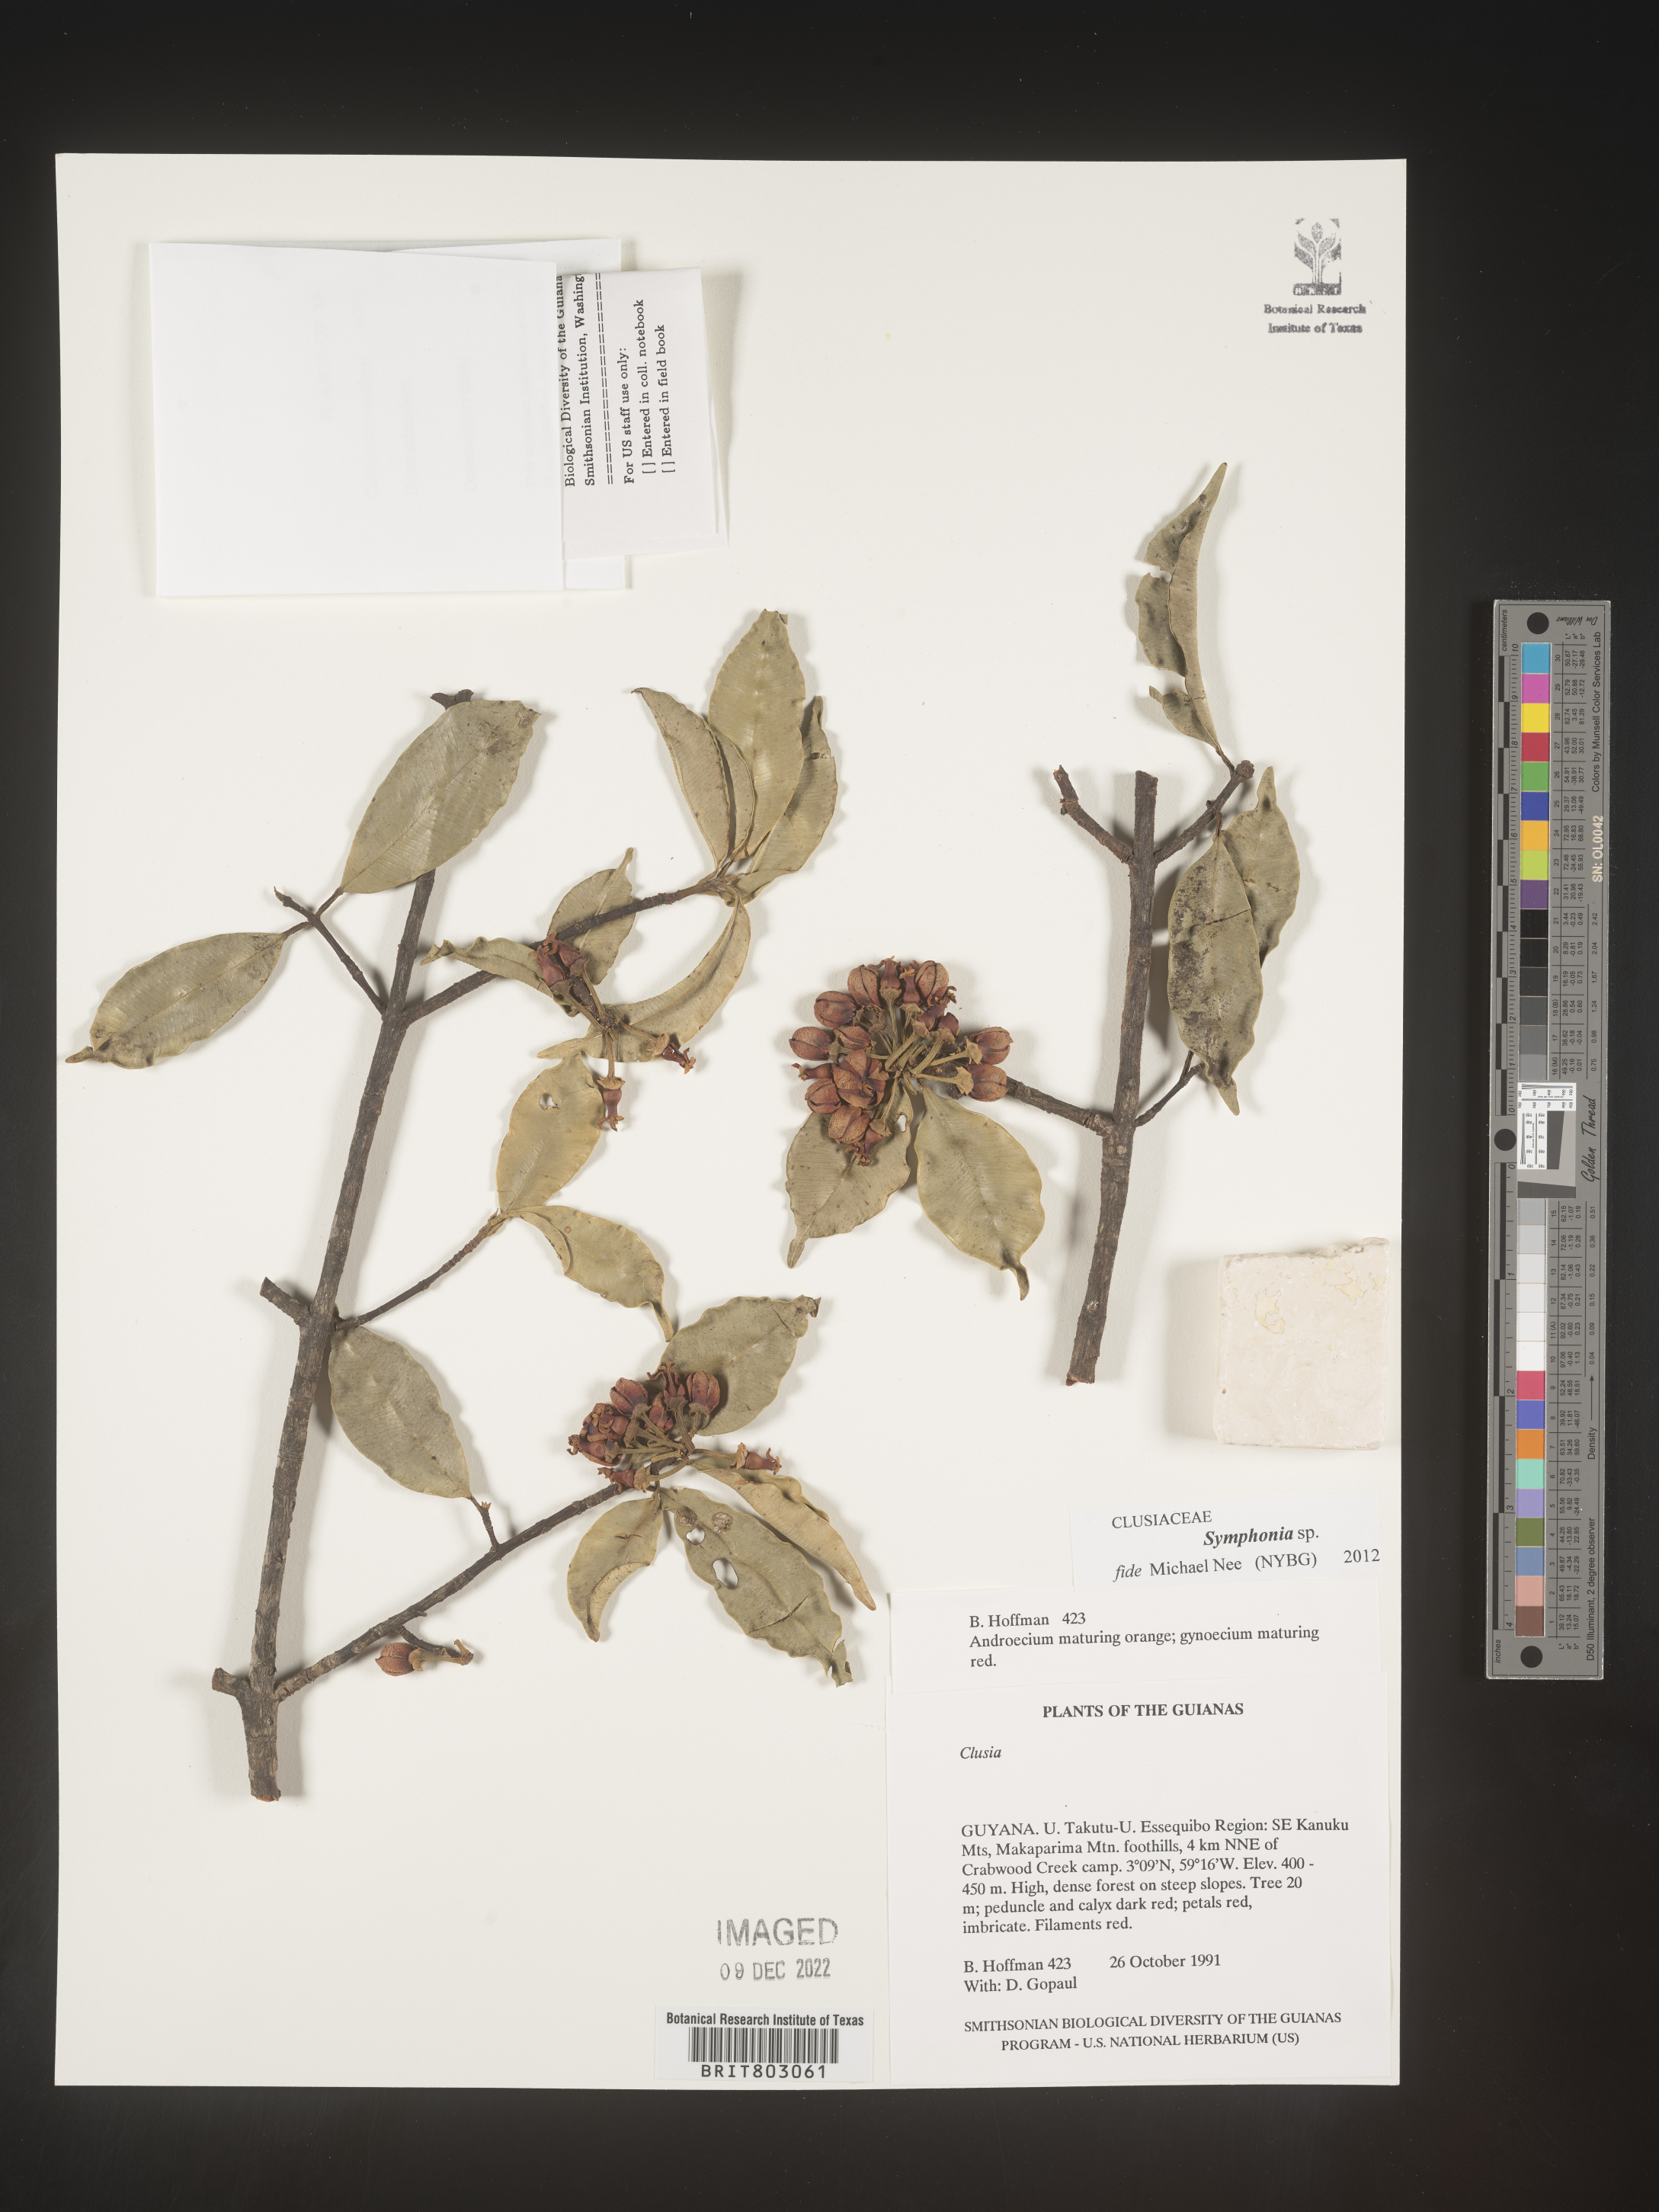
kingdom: Plantae
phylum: Tracheophyta
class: Magnoliopsida
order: Malpighiales
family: Clusiaceae
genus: Symphonia
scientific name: Symphonia
